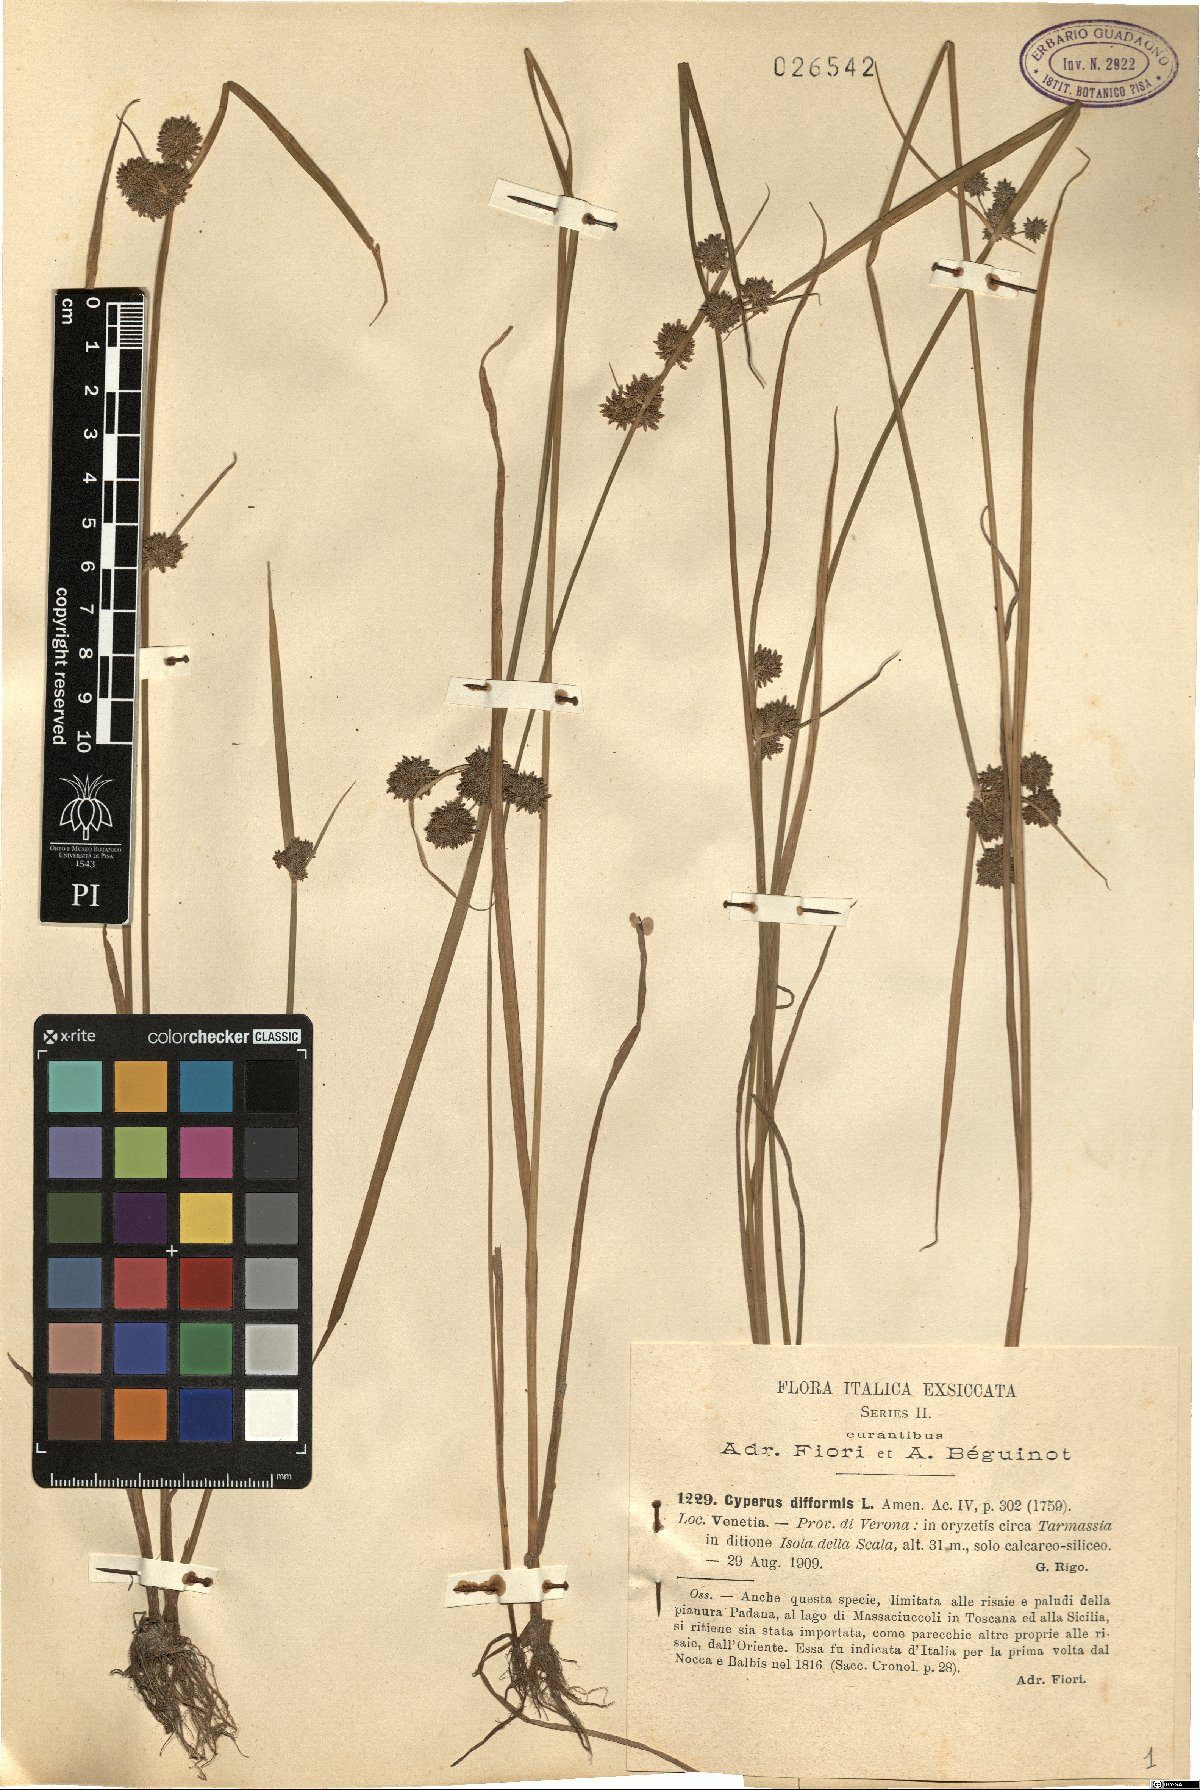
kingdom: Plantae
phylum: Tracheophyta
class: Liliopsida
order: Poales
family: Cyperaceae
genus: Cyperus
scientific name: Cyperus difformis
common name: Variable flatsedge
